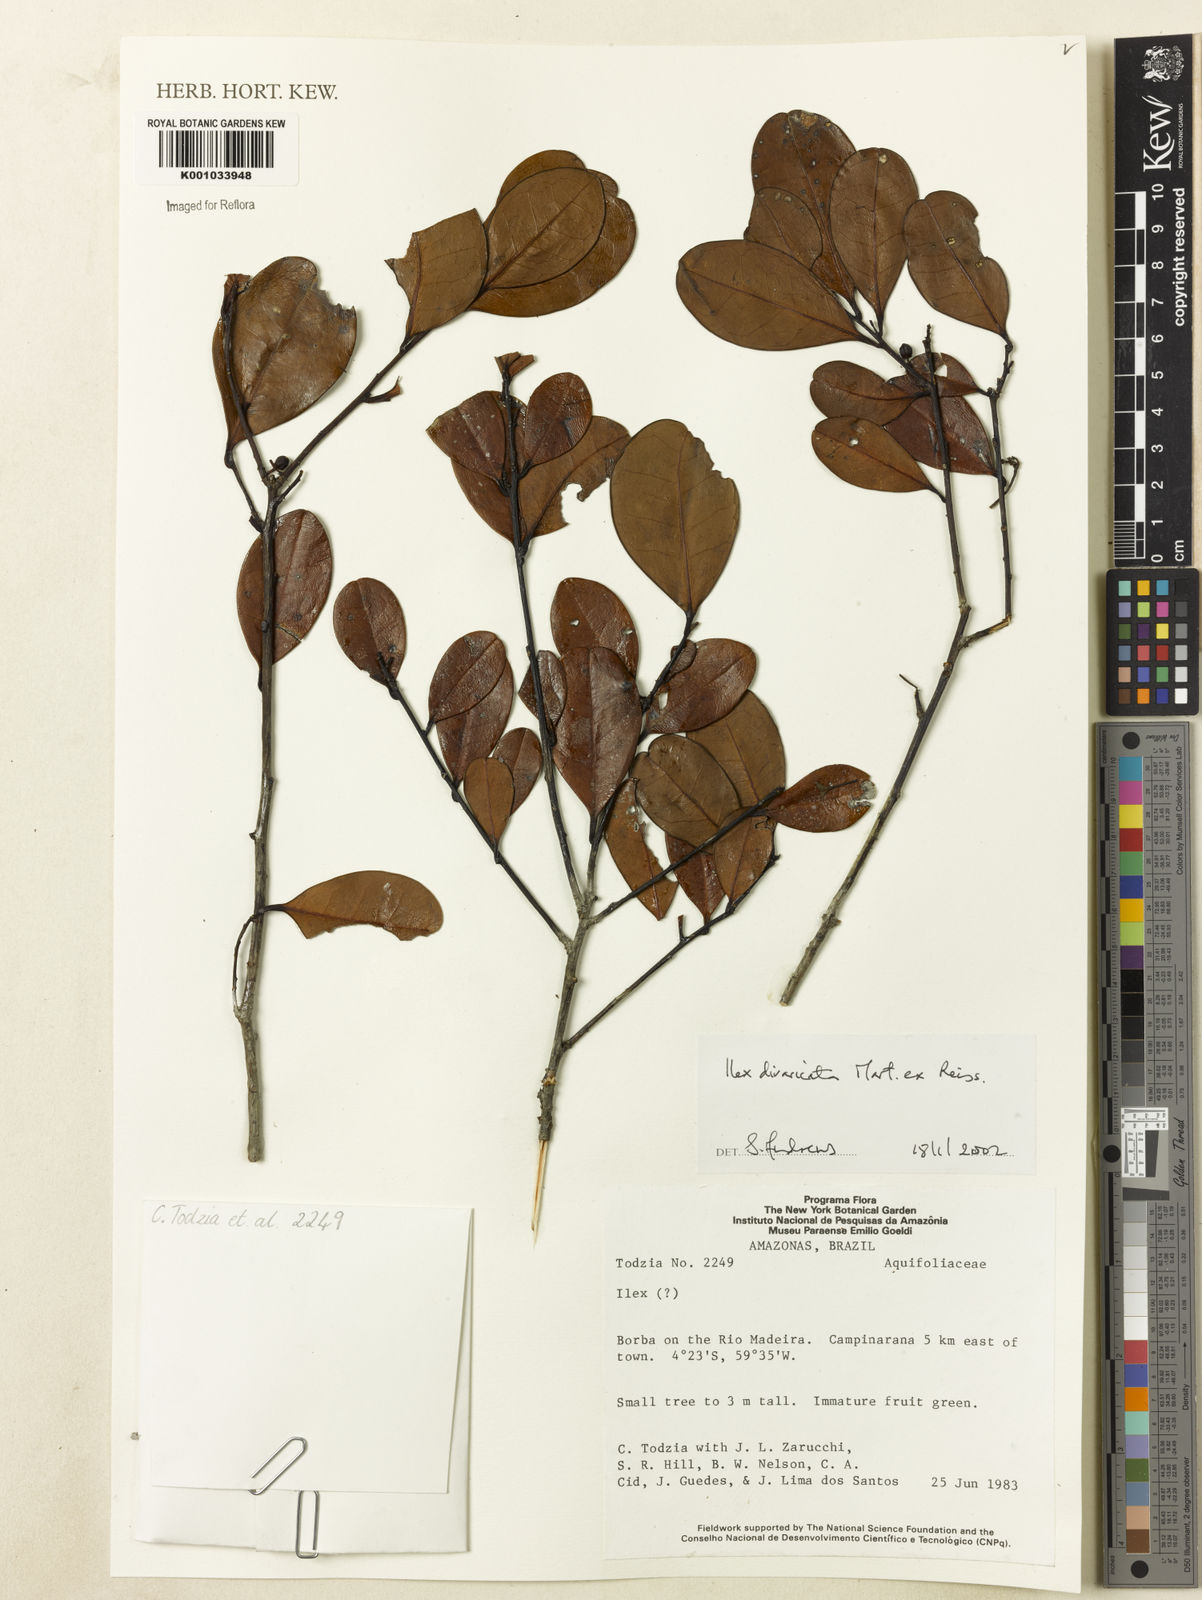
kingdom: Plantae
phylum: Tracheophyta
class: Magnoliopsida
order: Aquifoliales
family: Aquifoliaceae
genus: Ilex
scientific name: Ilex divaricata
